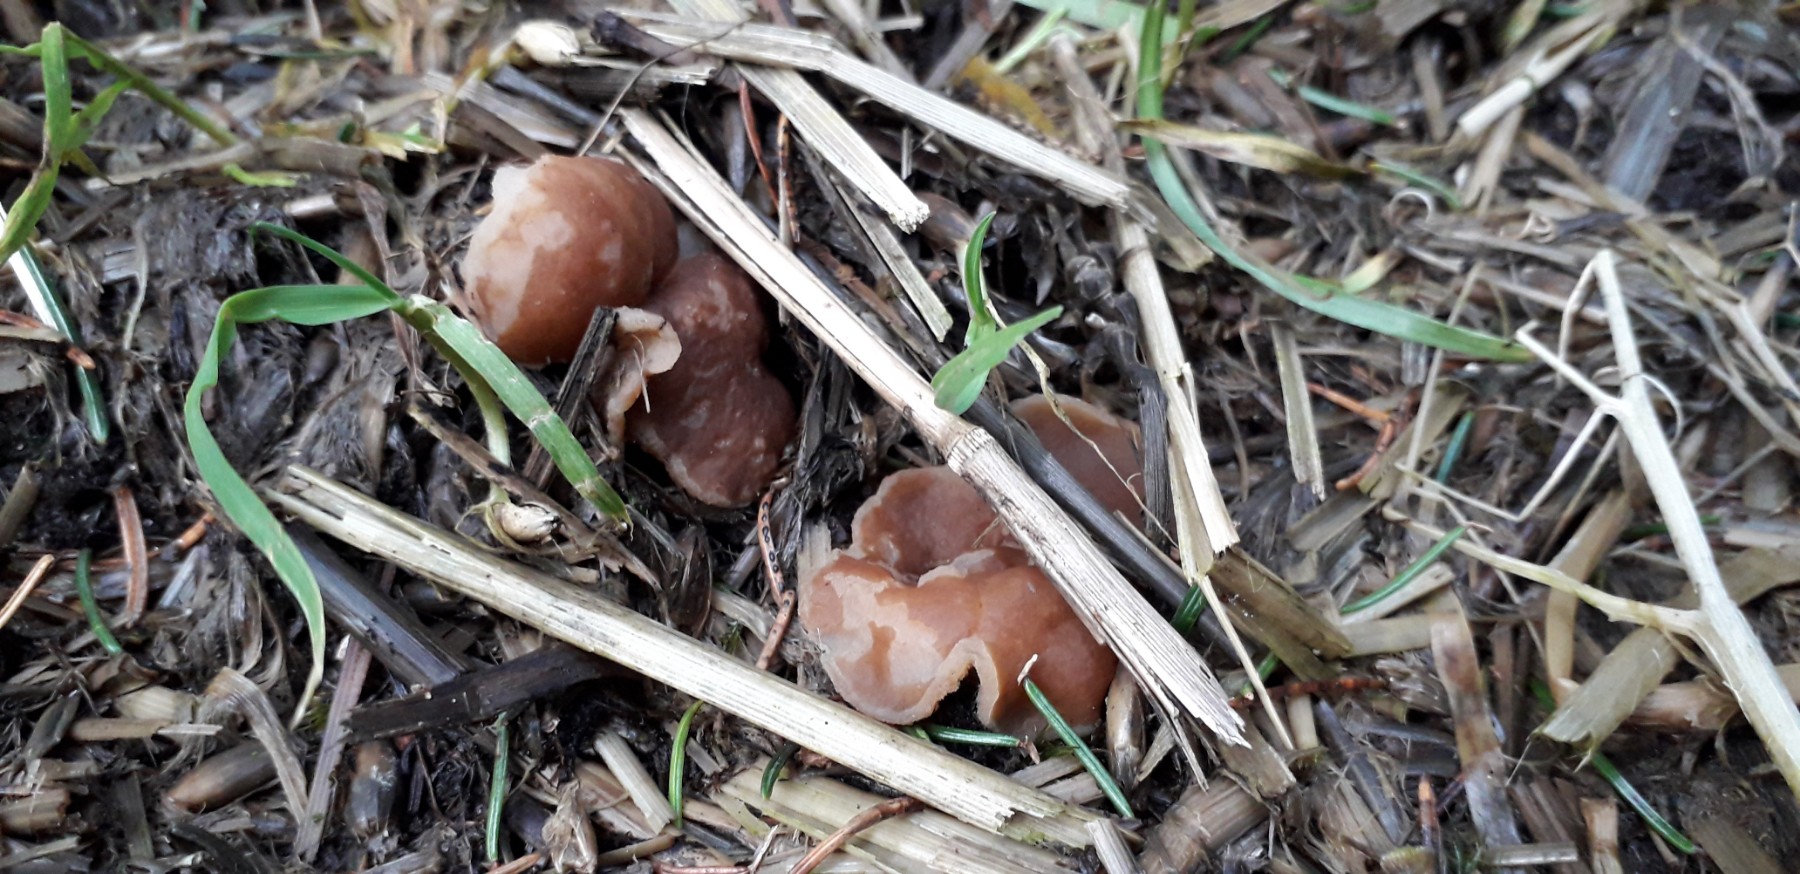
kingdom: Fungi
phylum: Ascomycota
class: Pezizomycetes
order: Pezizales
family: Pezizaceae
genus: Peziza
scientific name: Peziza vesiculosa
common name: blære-bægersvamp
